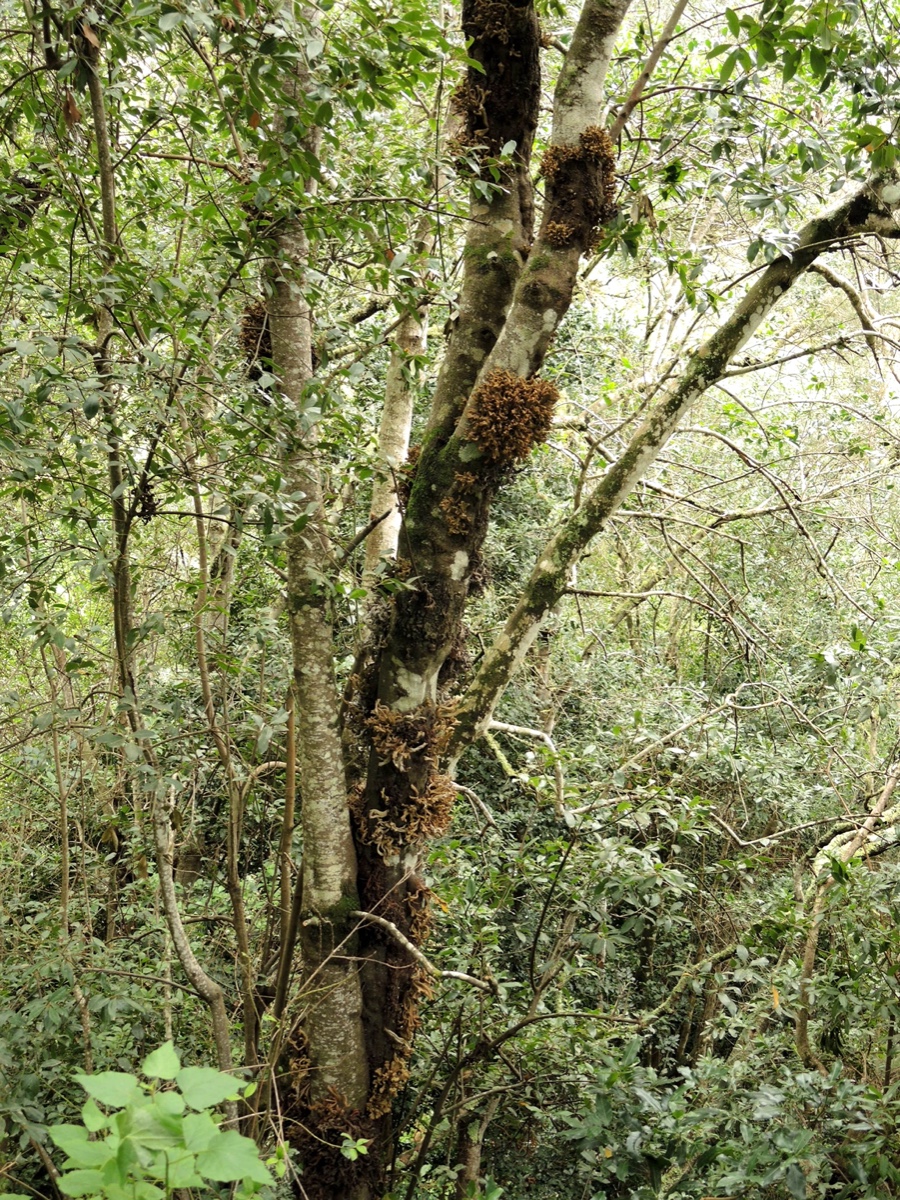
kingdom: Fungi
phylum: Basidiomycota
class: Exobasidiomycetes
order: Exobasidiales
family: Laurobasidiaceae
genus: Laurobasidium
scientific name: Laurobasidium lauri
